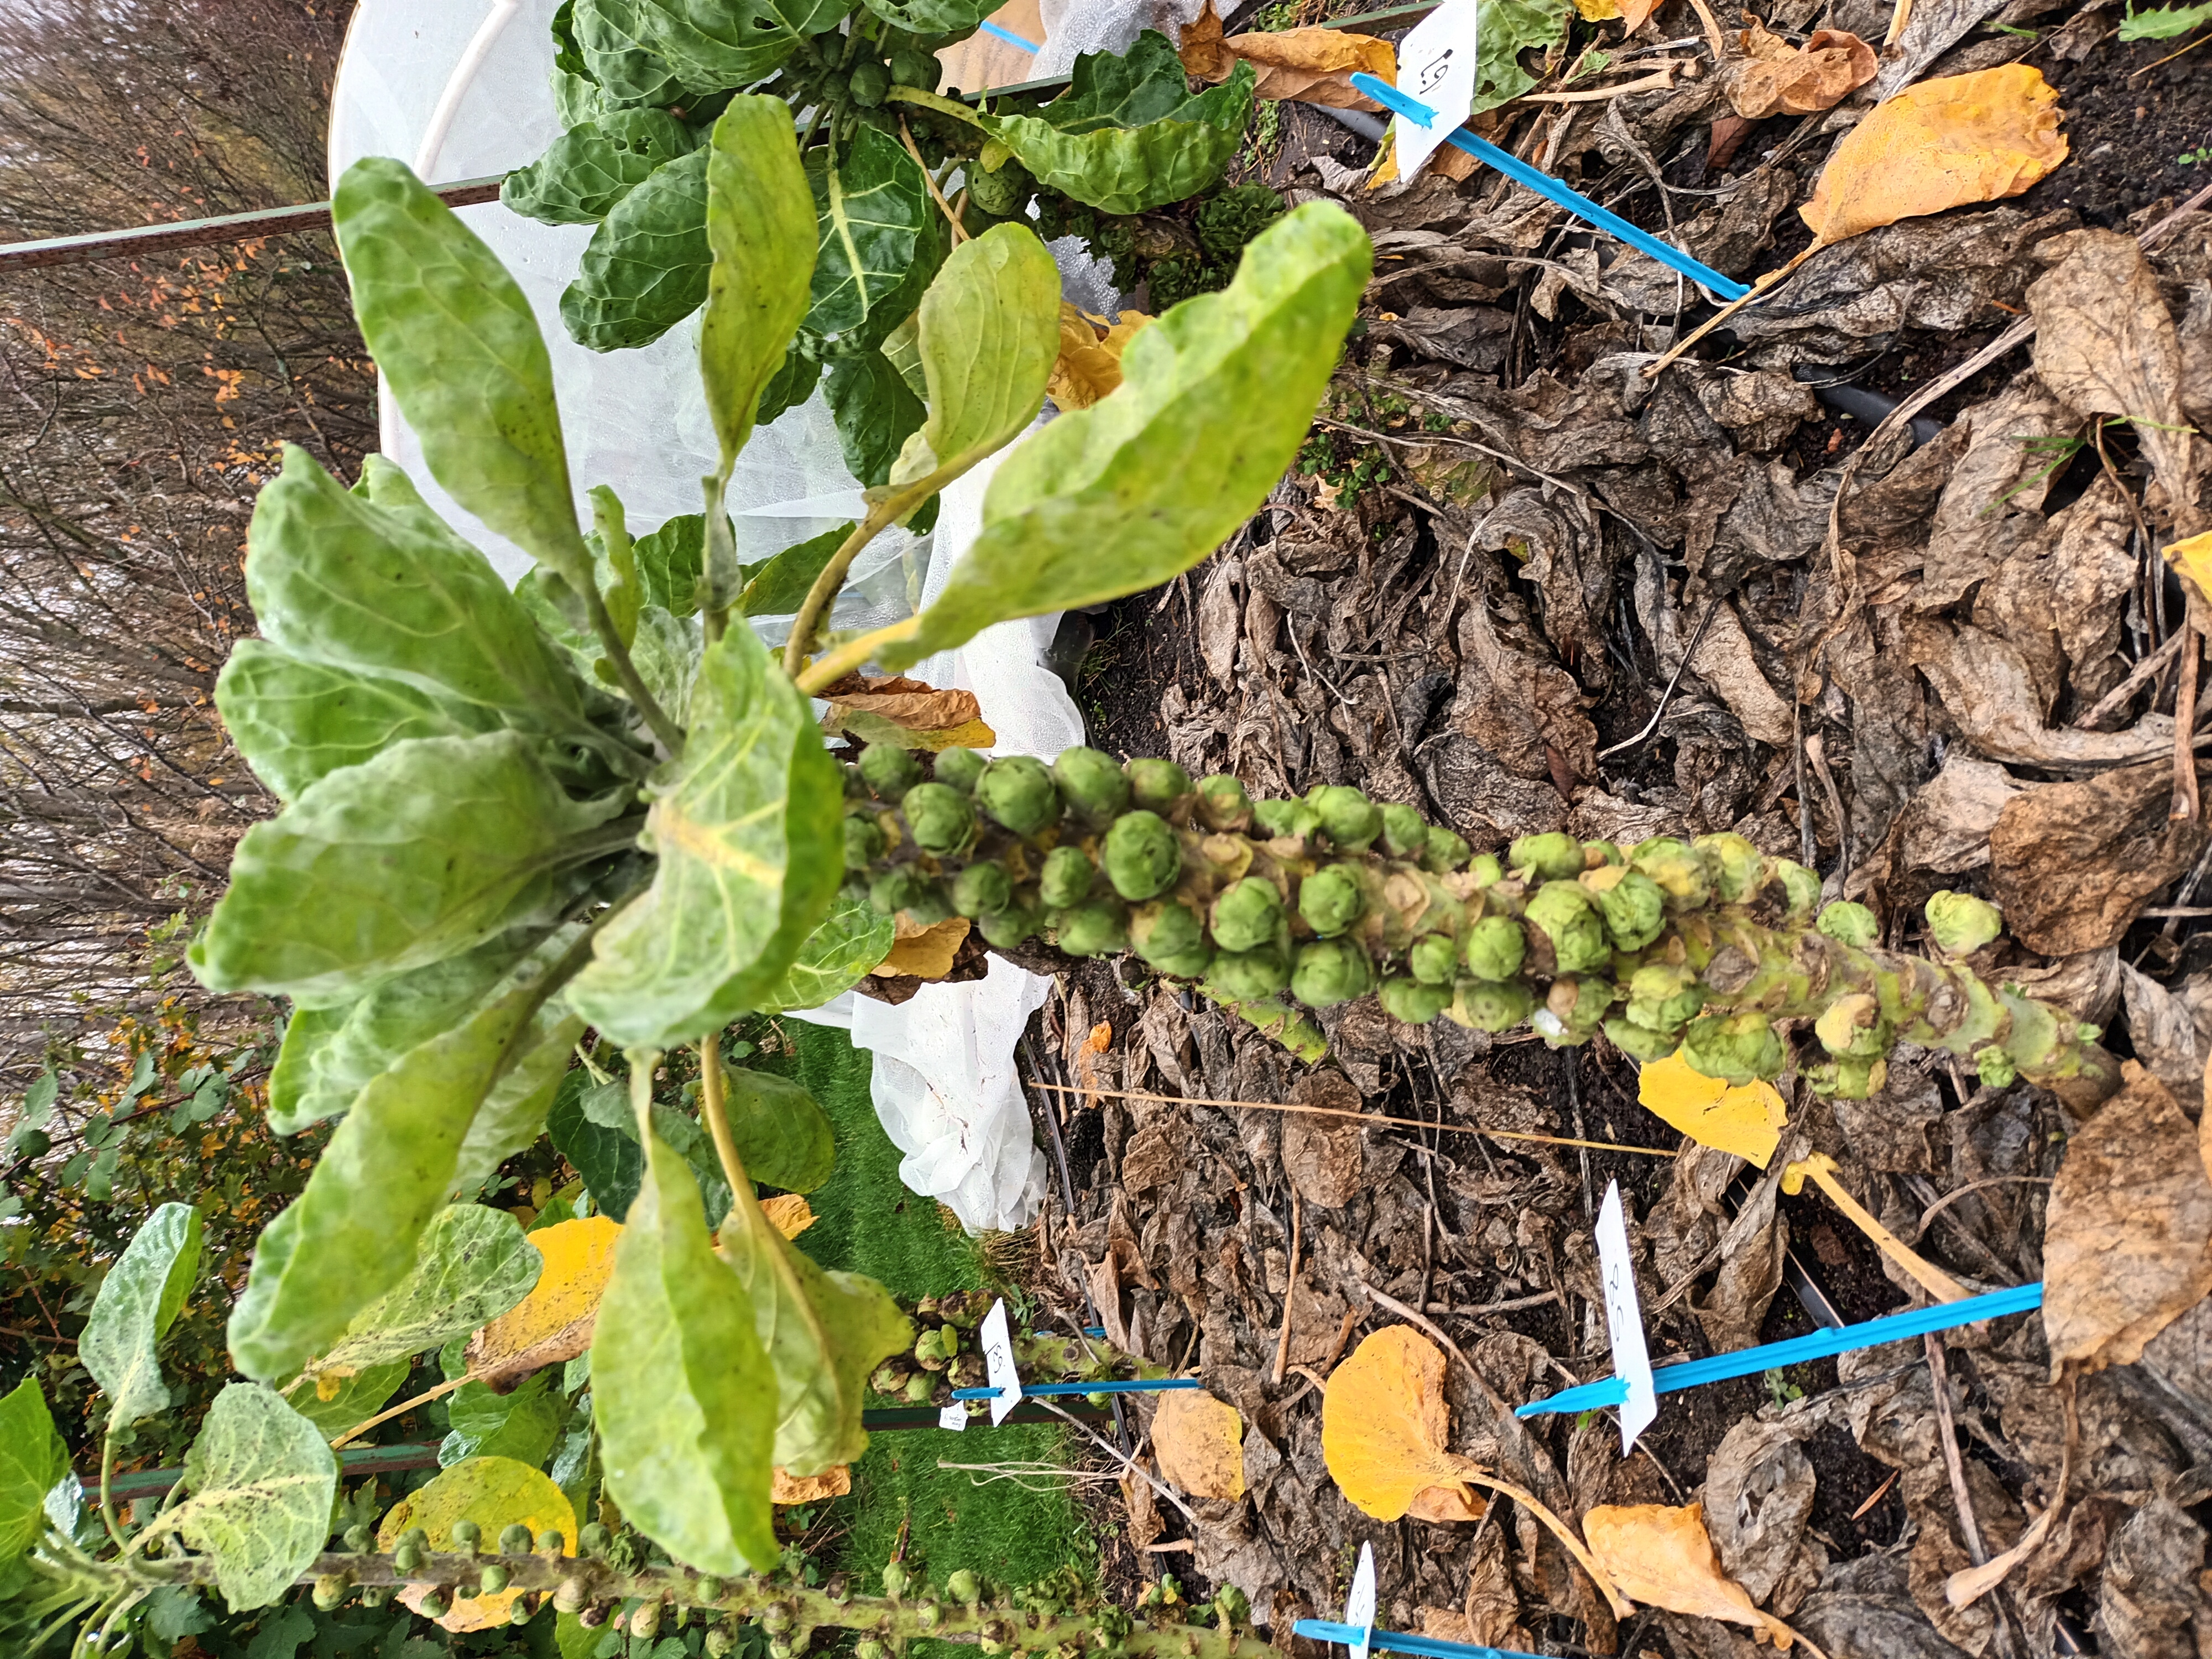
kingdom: Plantae
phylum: Tracheophyta
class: Magnoliopsida
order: Brassicales
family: Brassicaceae
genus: Brassica
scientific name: Brassica oleracea
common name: Cabbage
